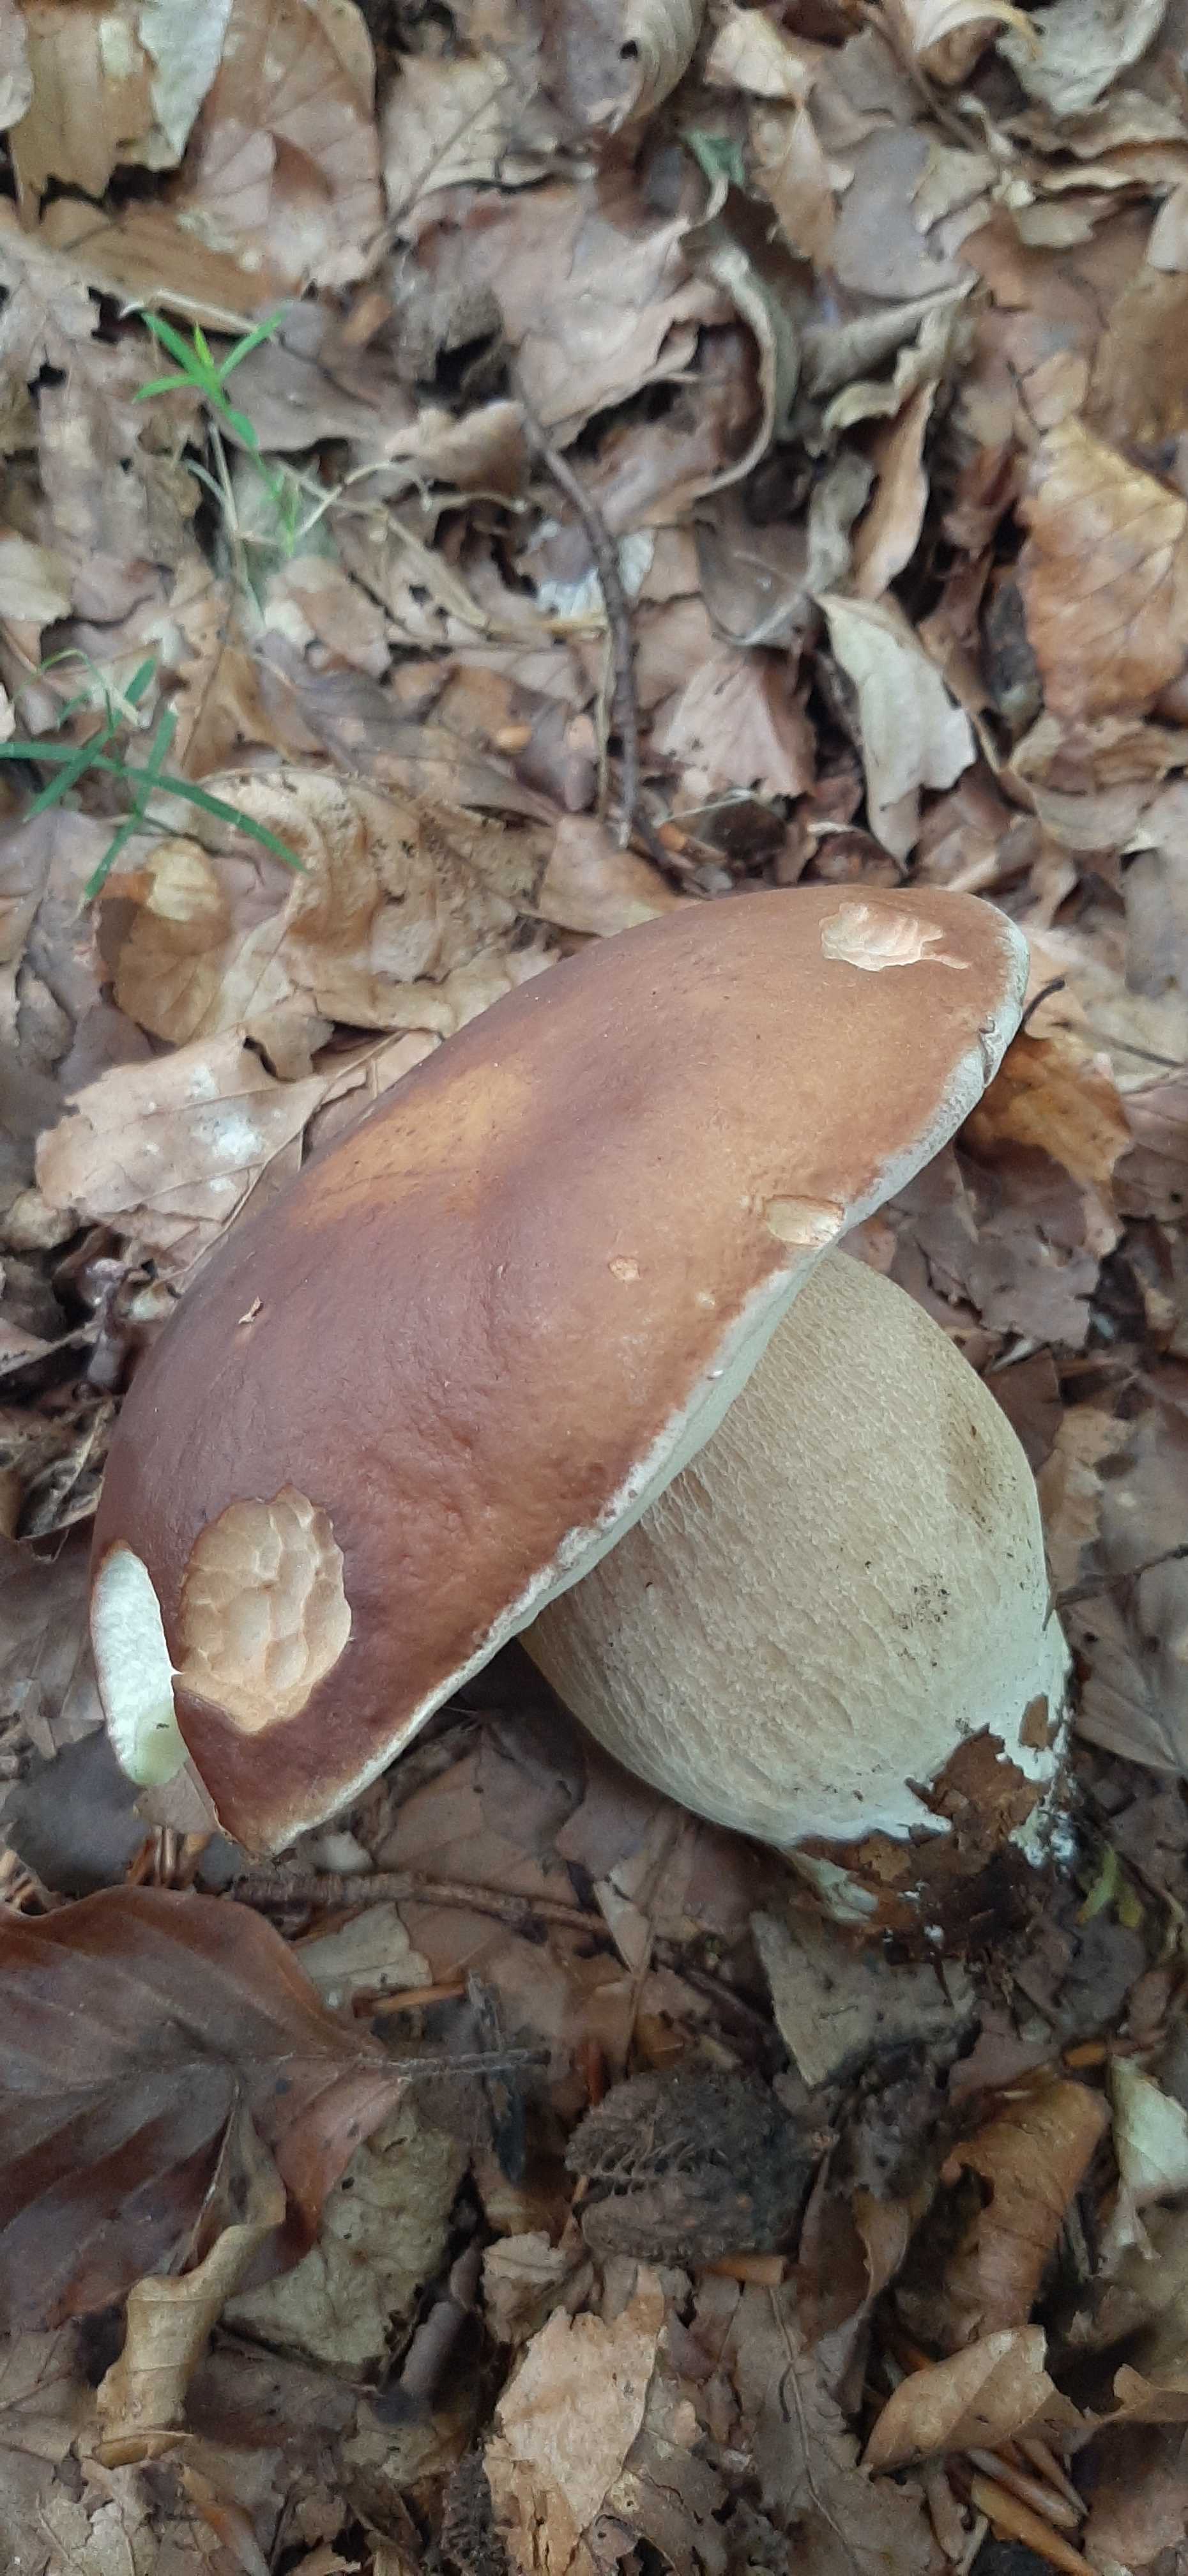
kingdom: Fungi
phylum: Basidiomycota
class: Agaricomycetes
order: Boletales
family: Boletaceae
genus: Boletus
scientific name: Boletus edulis
